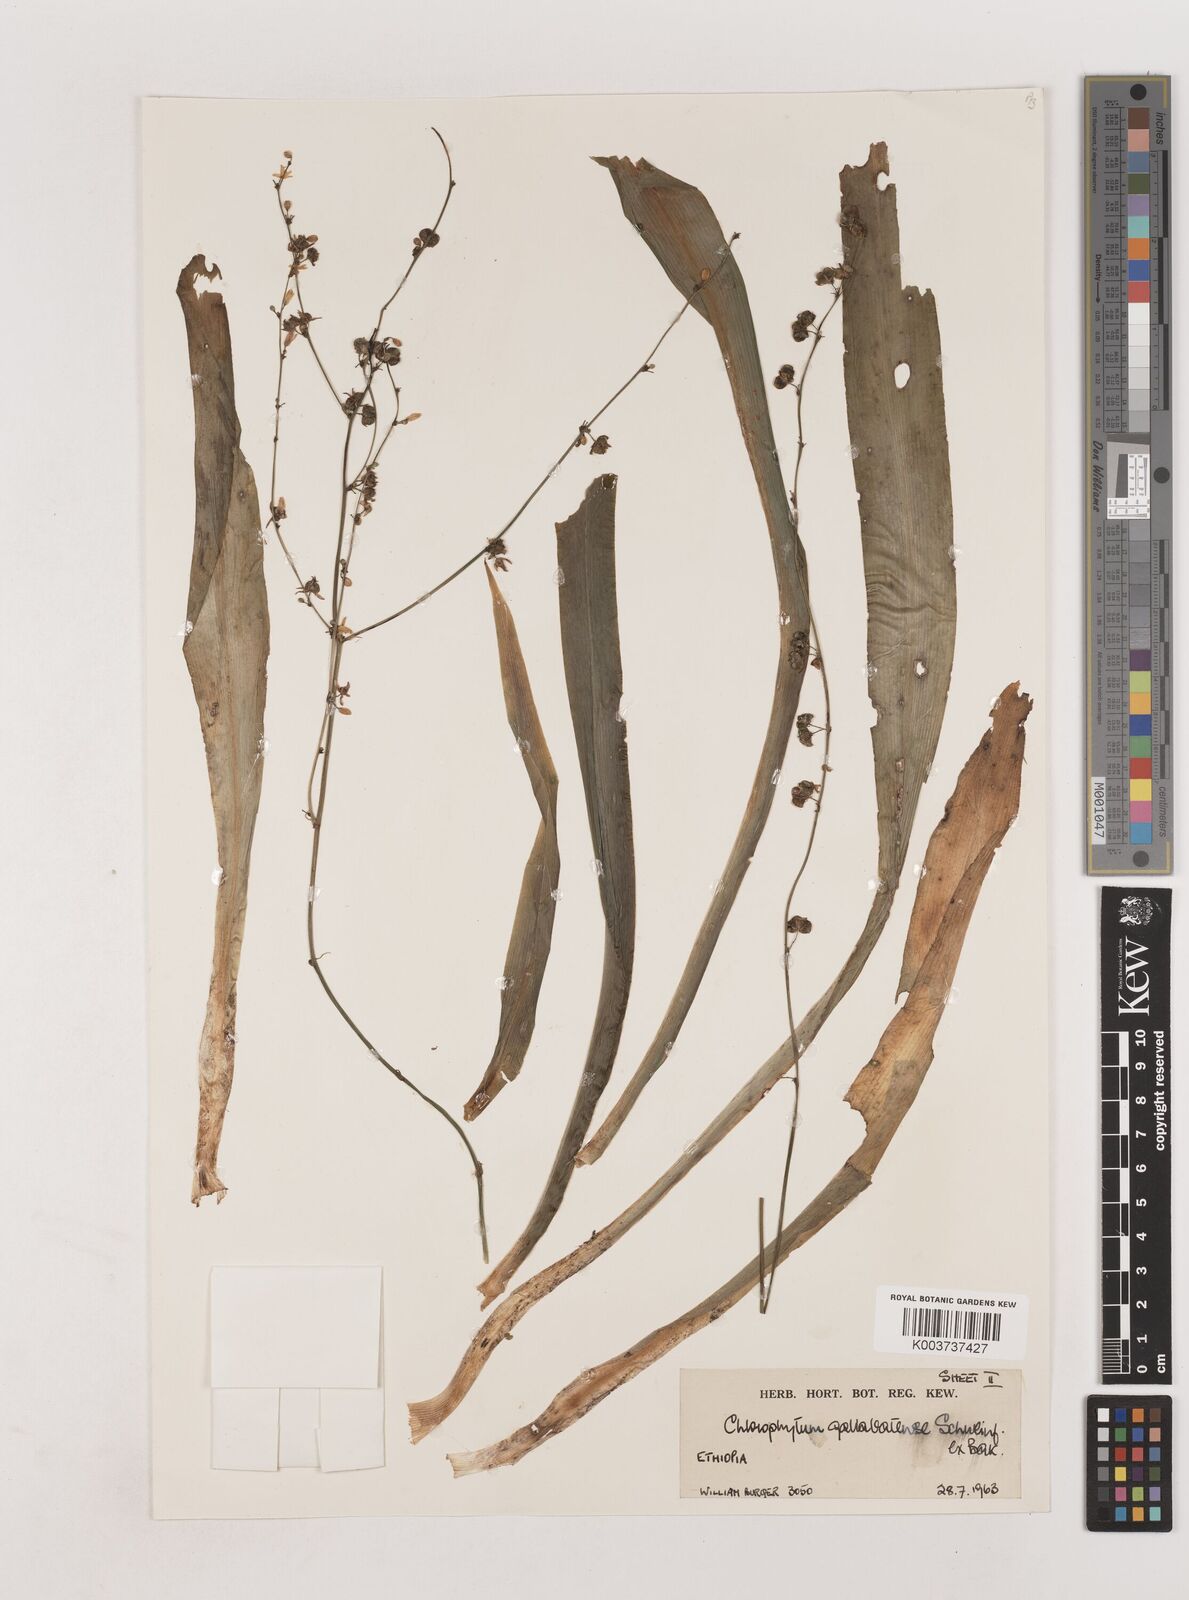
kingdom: Plantae
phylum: Tracheophyta
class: Liliopsida
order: Asparagales
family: Asparagaceae
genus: Chlorophytum
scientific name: Chlorophytum gallabatense
